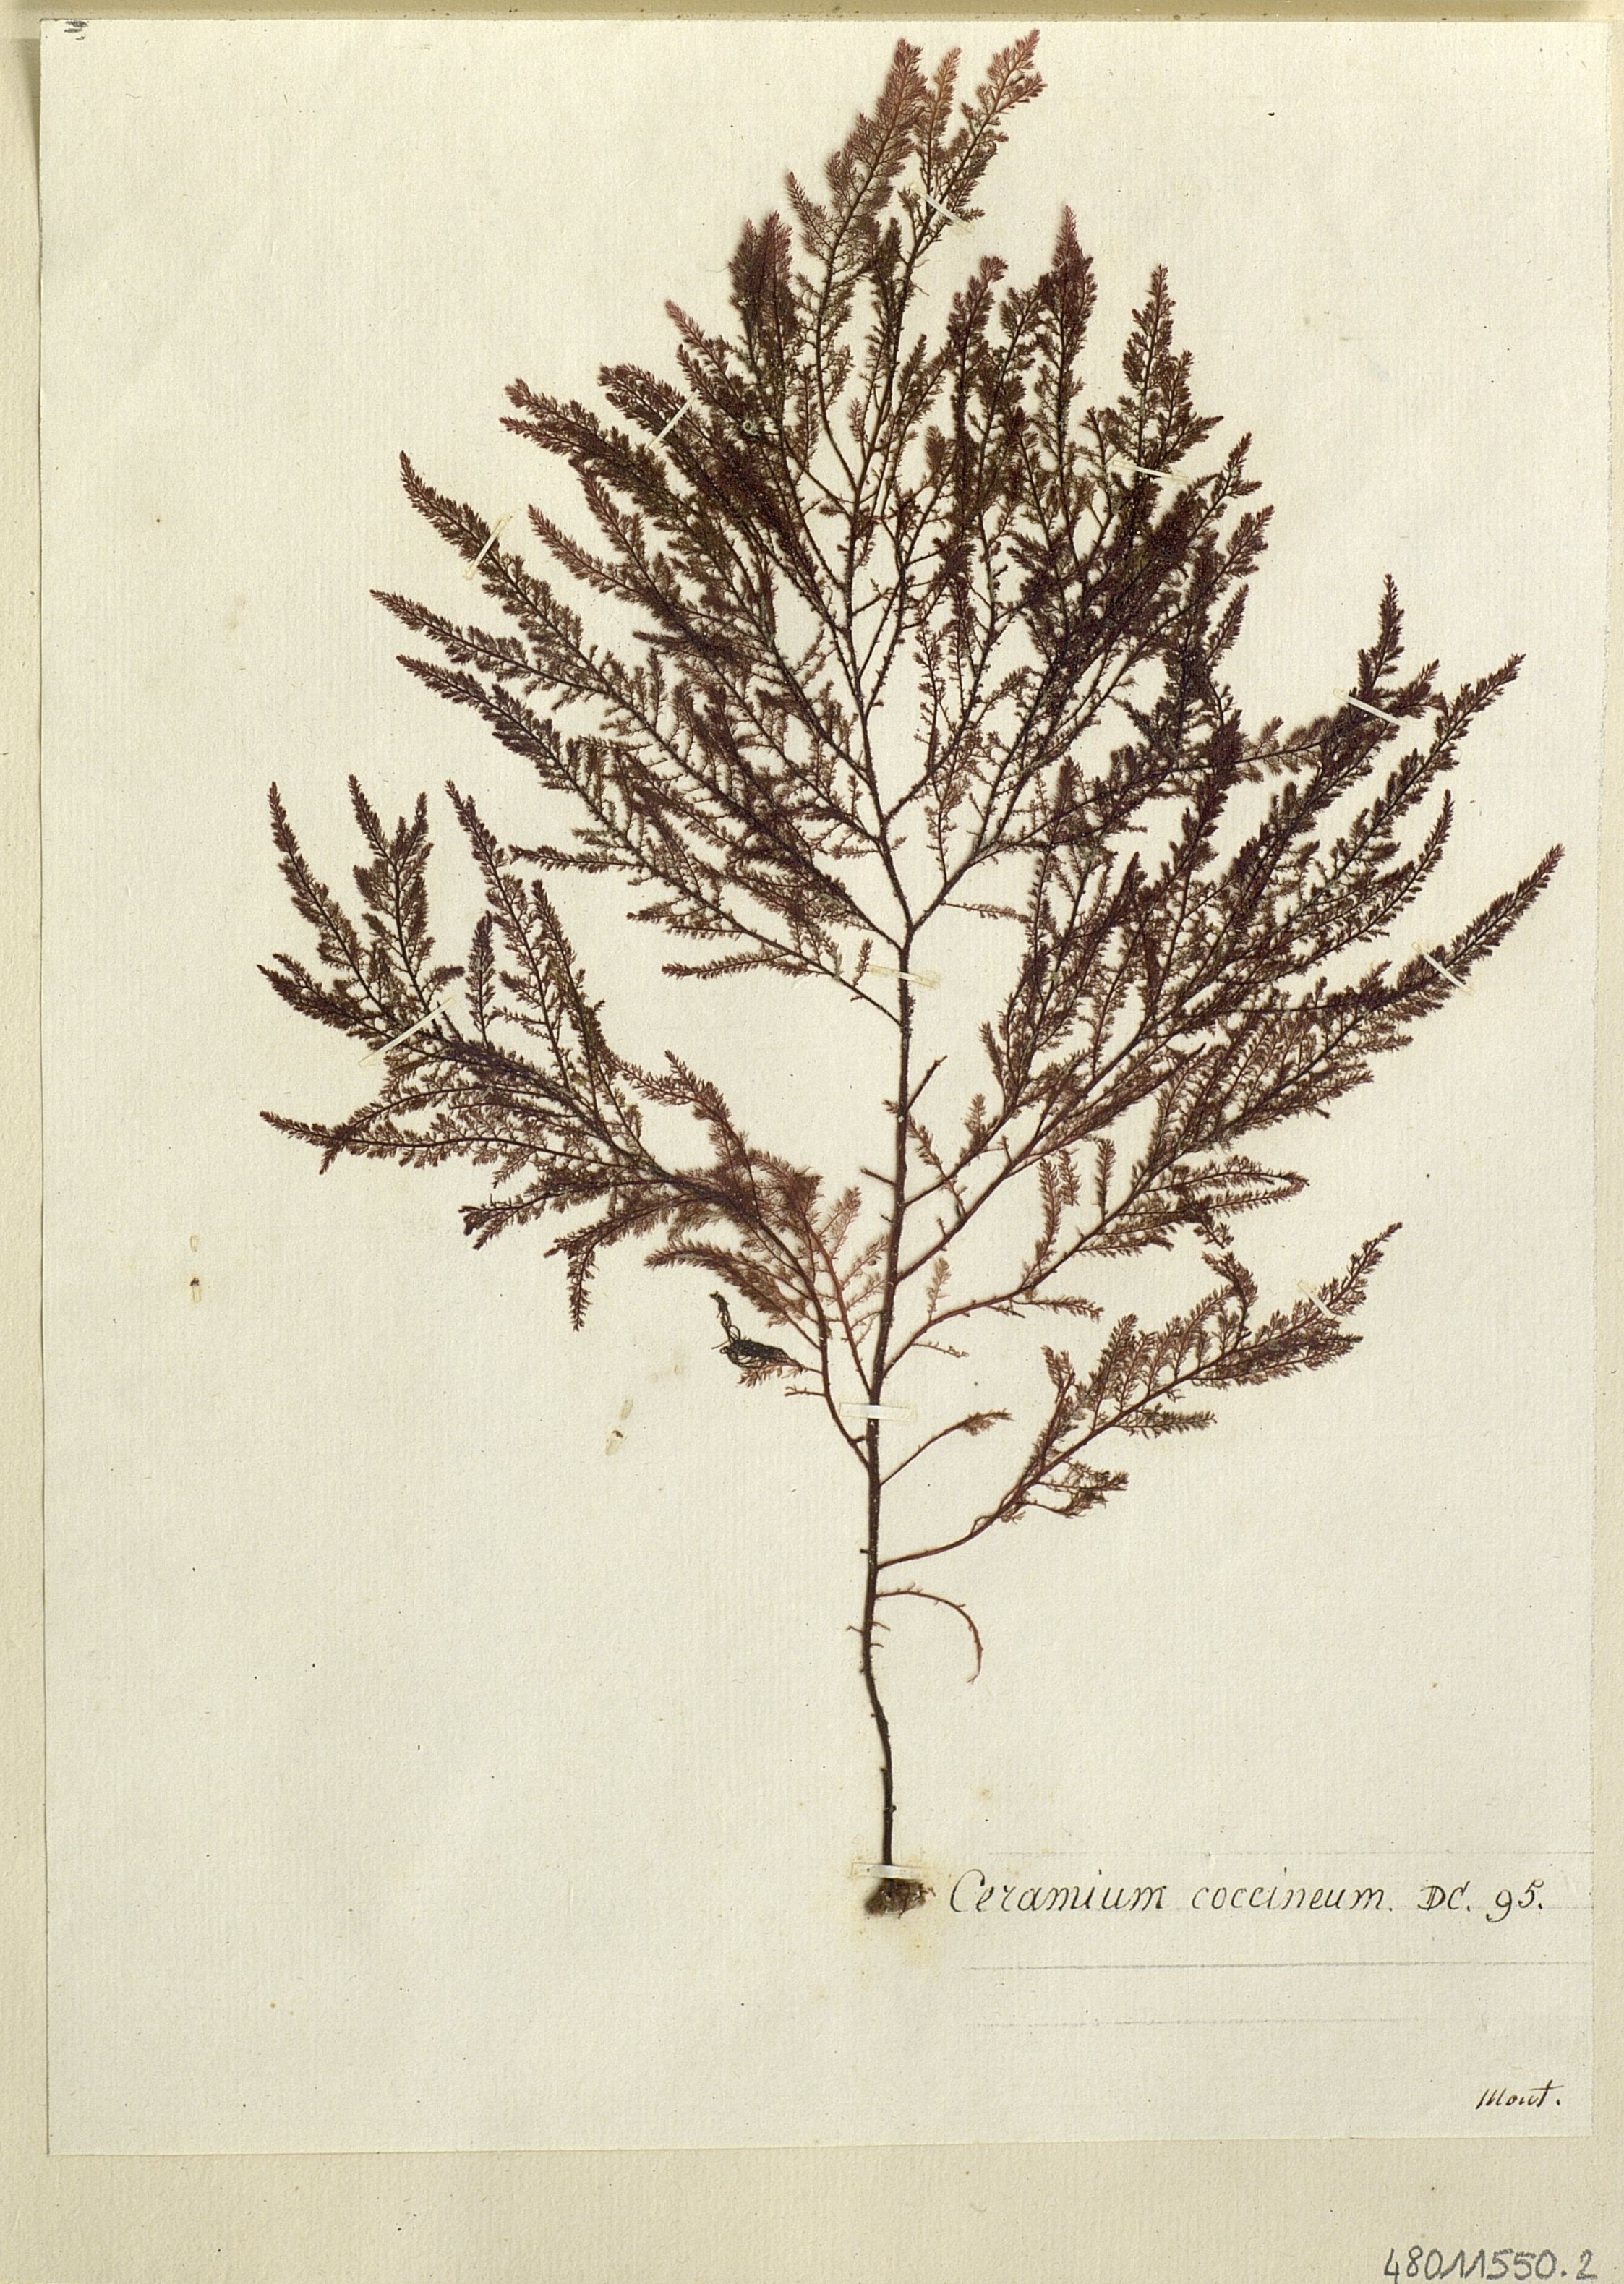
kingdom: Plantae
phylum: Rhodophyta
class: Florideophyceae
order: Ceramiales
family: Ceramiaceae
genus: Ceramium
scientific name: Ceramium
